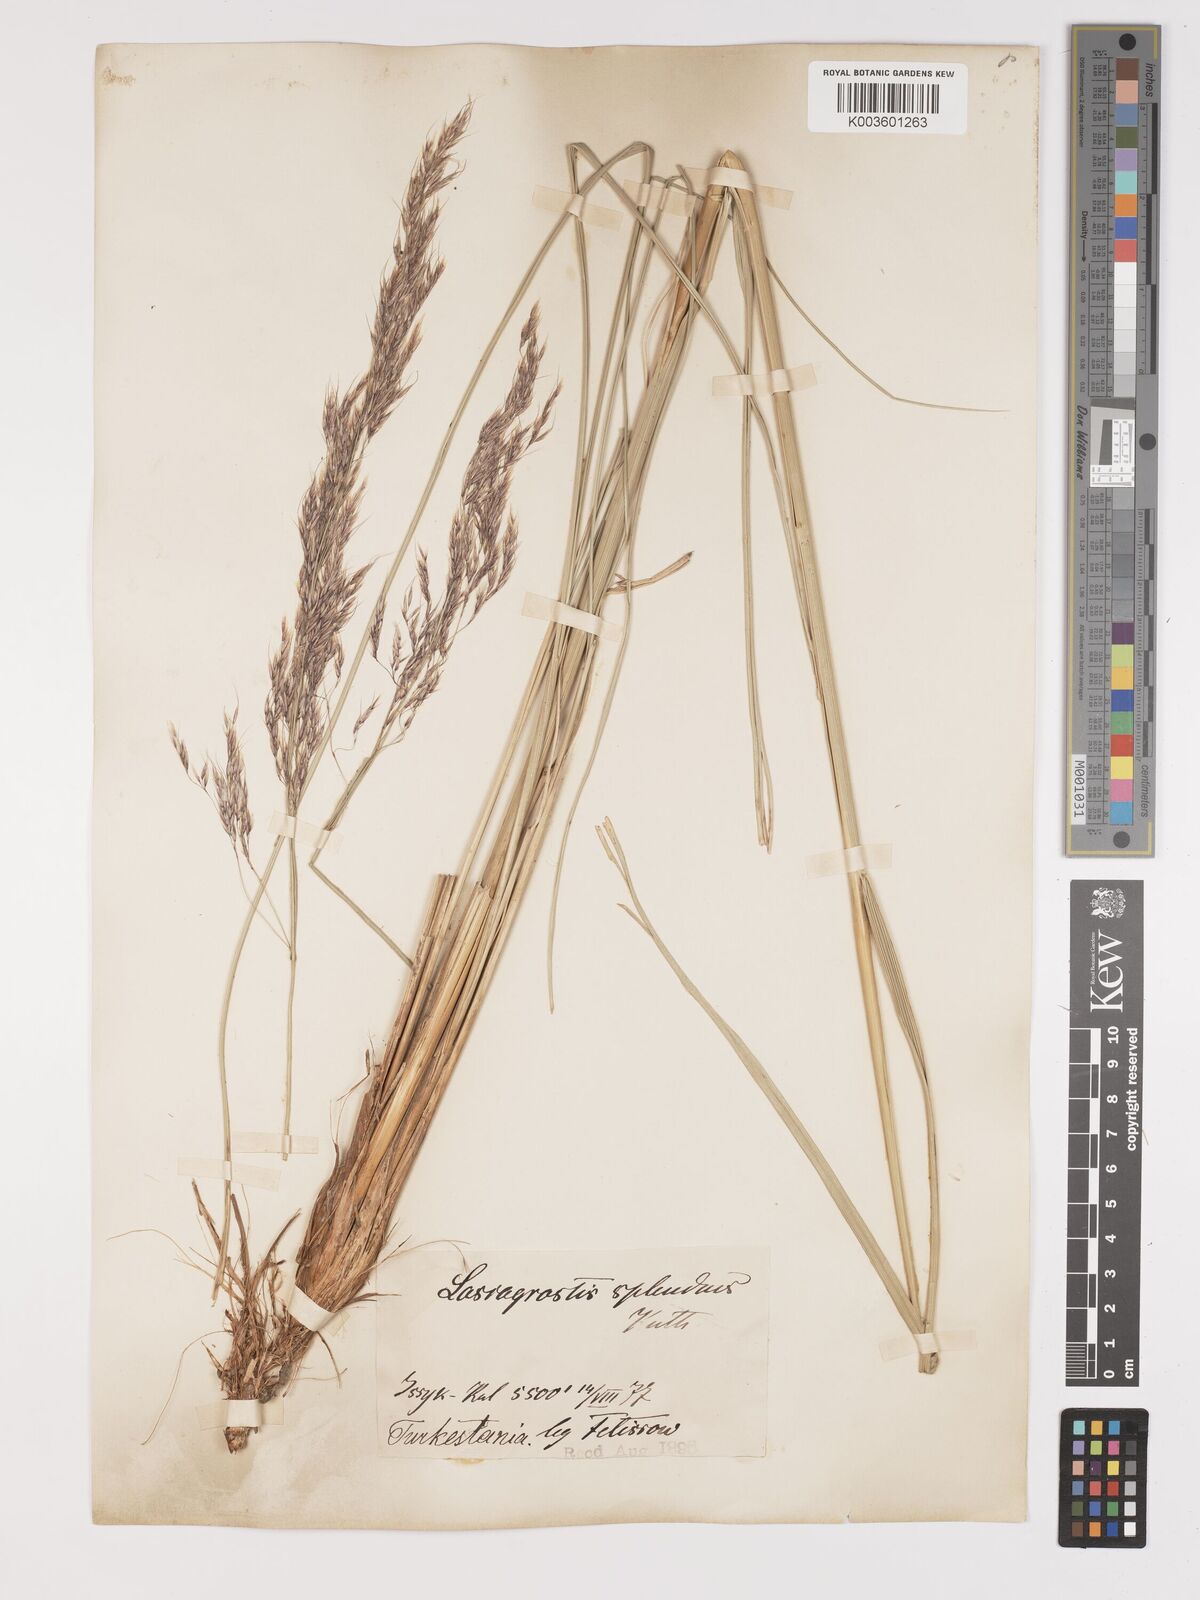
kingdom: Plantae
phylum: Tracheophyta
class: Liliopsida
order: Poales
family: Poaceae
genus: Neotrinia
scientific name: Neotrinia splendens
